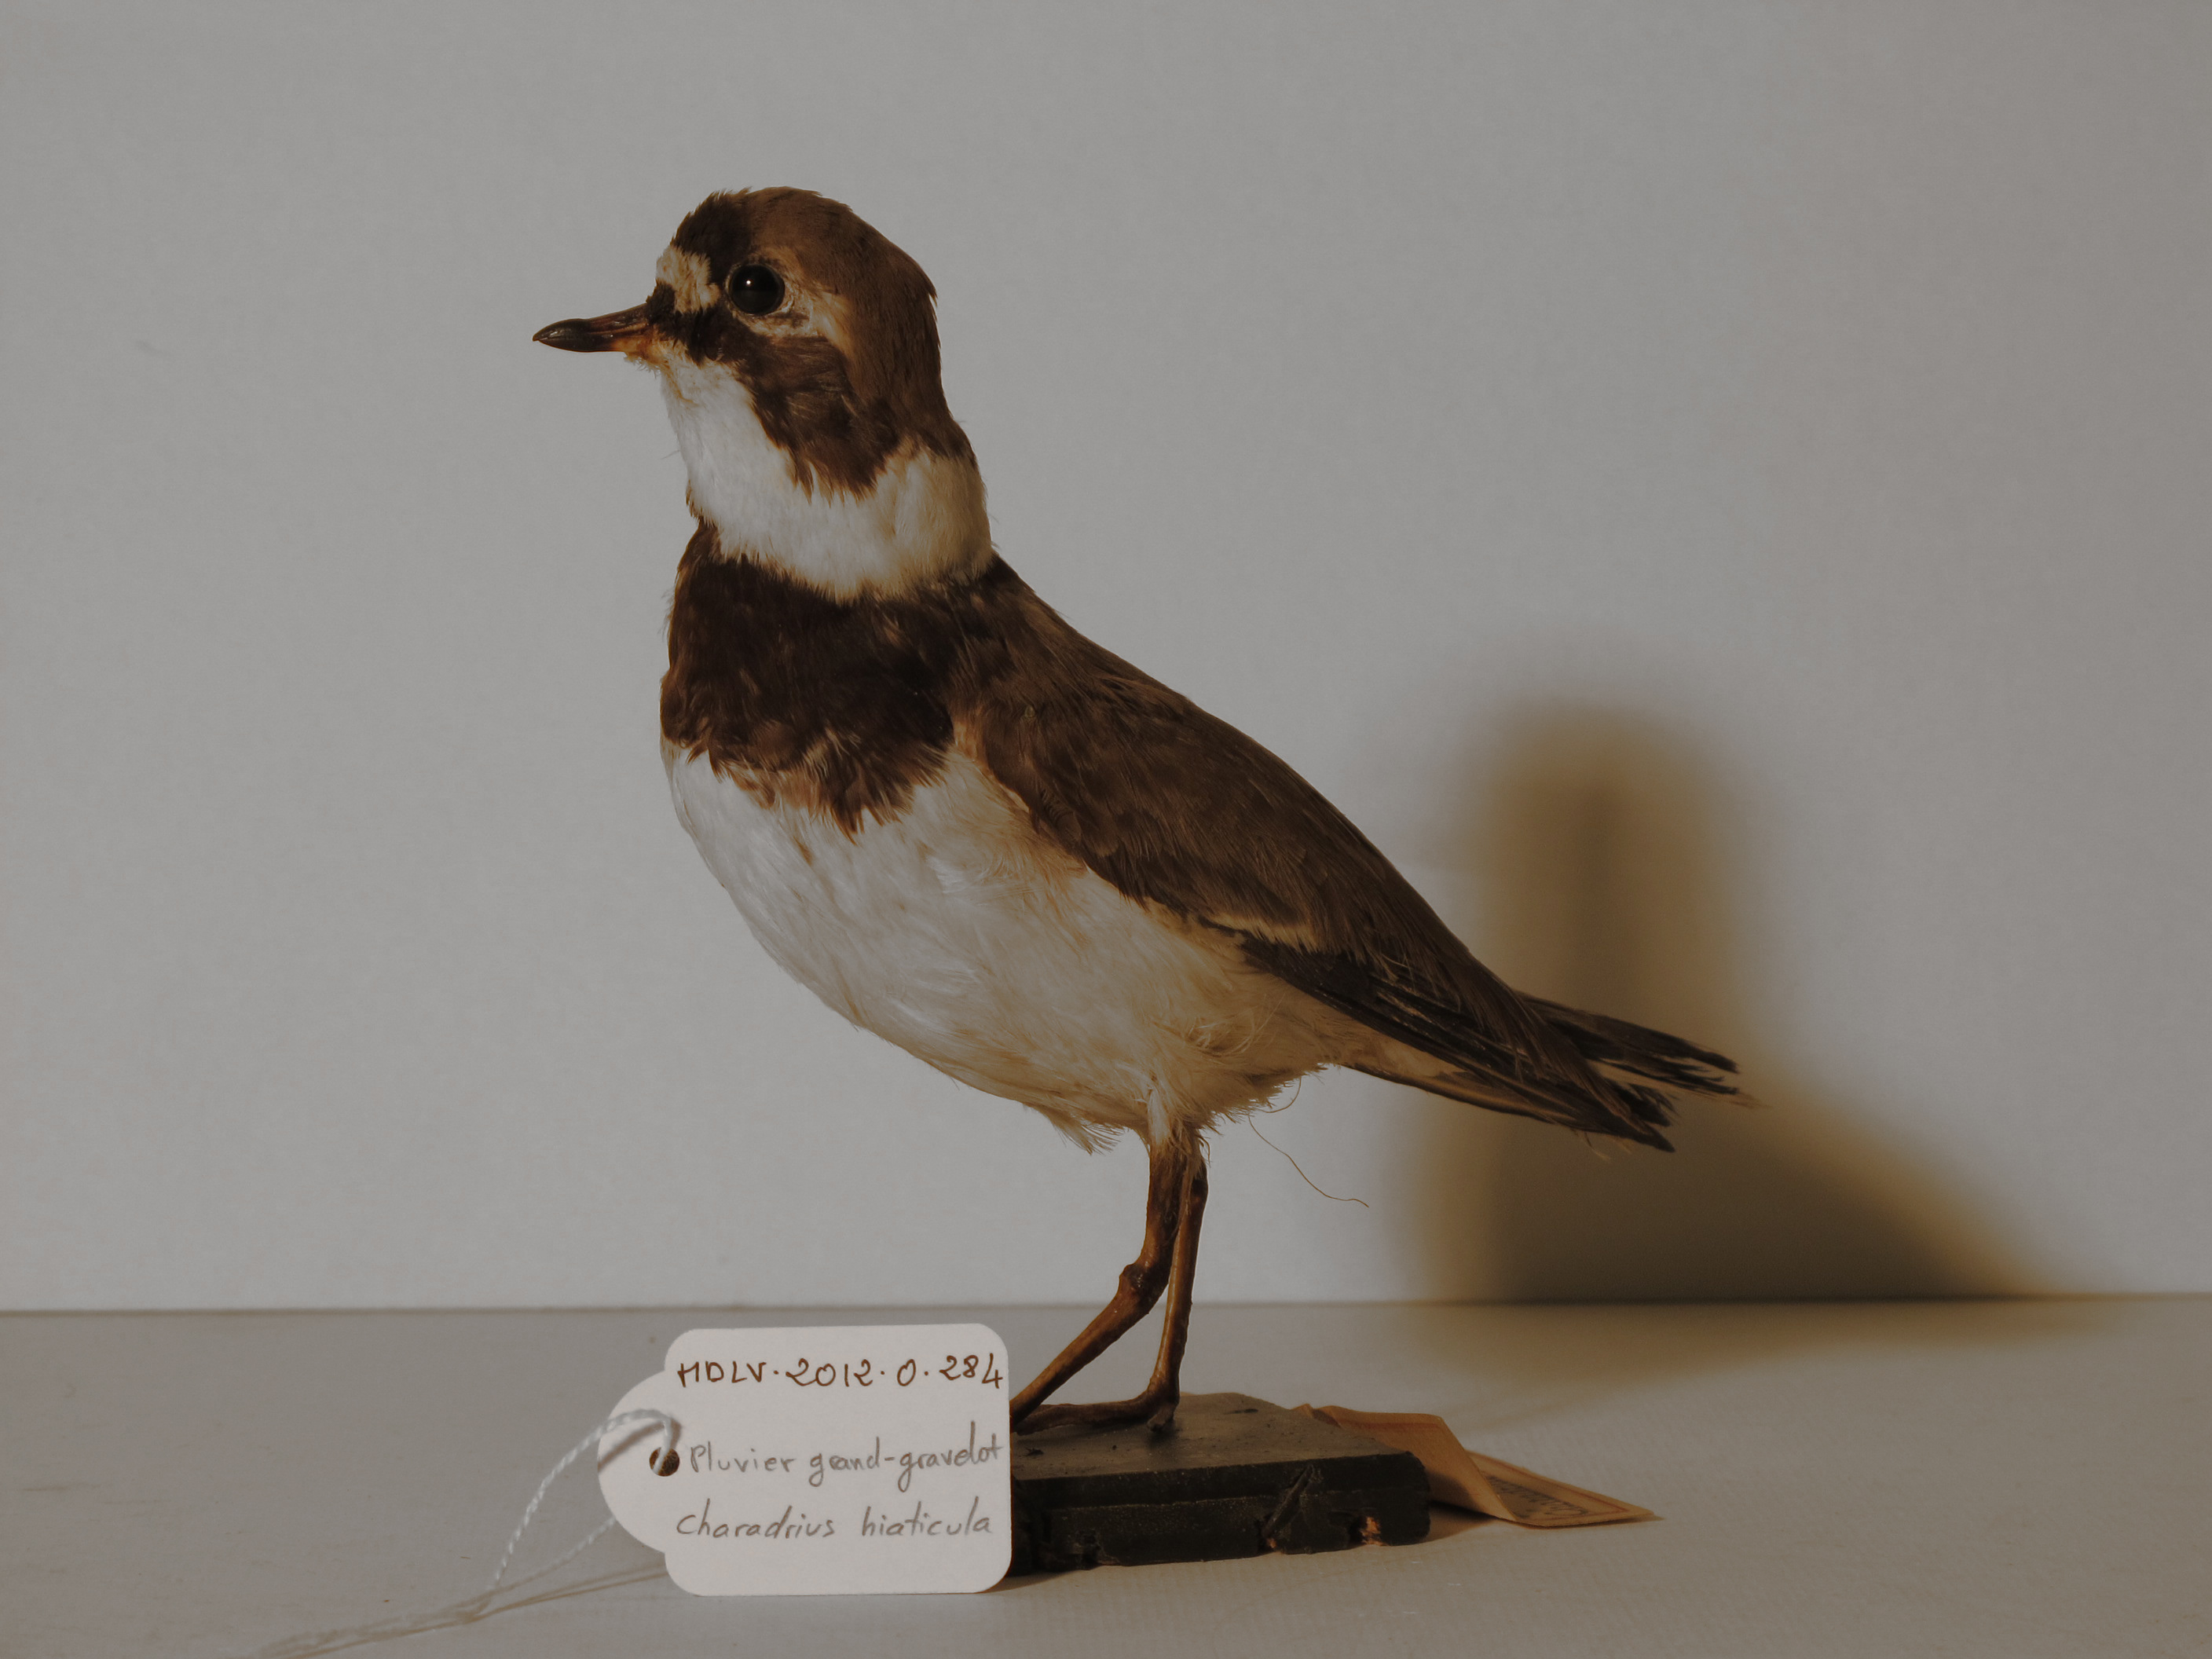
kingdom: Animalia
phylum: Chordata
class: Aves
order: Charadriiformes
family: Charadriidae
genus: Charadrius
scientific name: Charadrius hiaticula
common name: Common Ringed Plover
